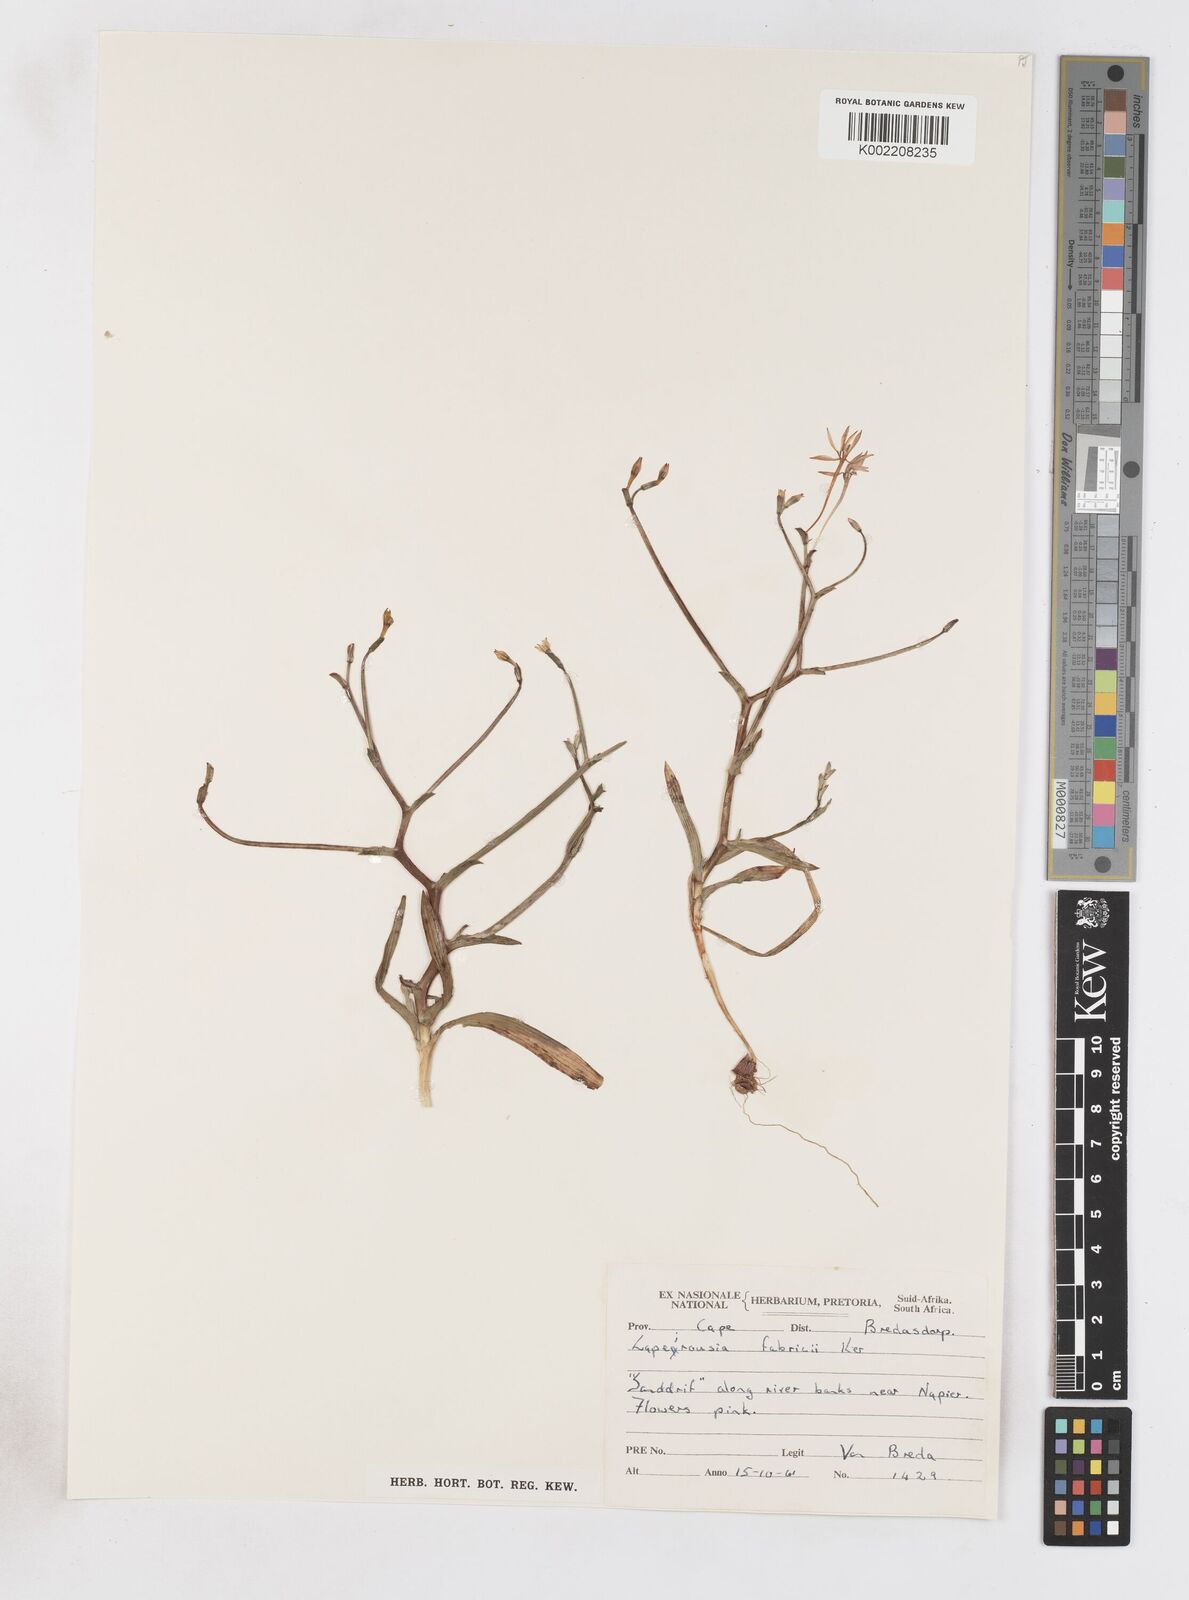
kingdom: Plantae
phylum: Tracheophyta
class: Liliopsida
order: Asparagales
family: Iridaceae
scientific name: Iridaceae
